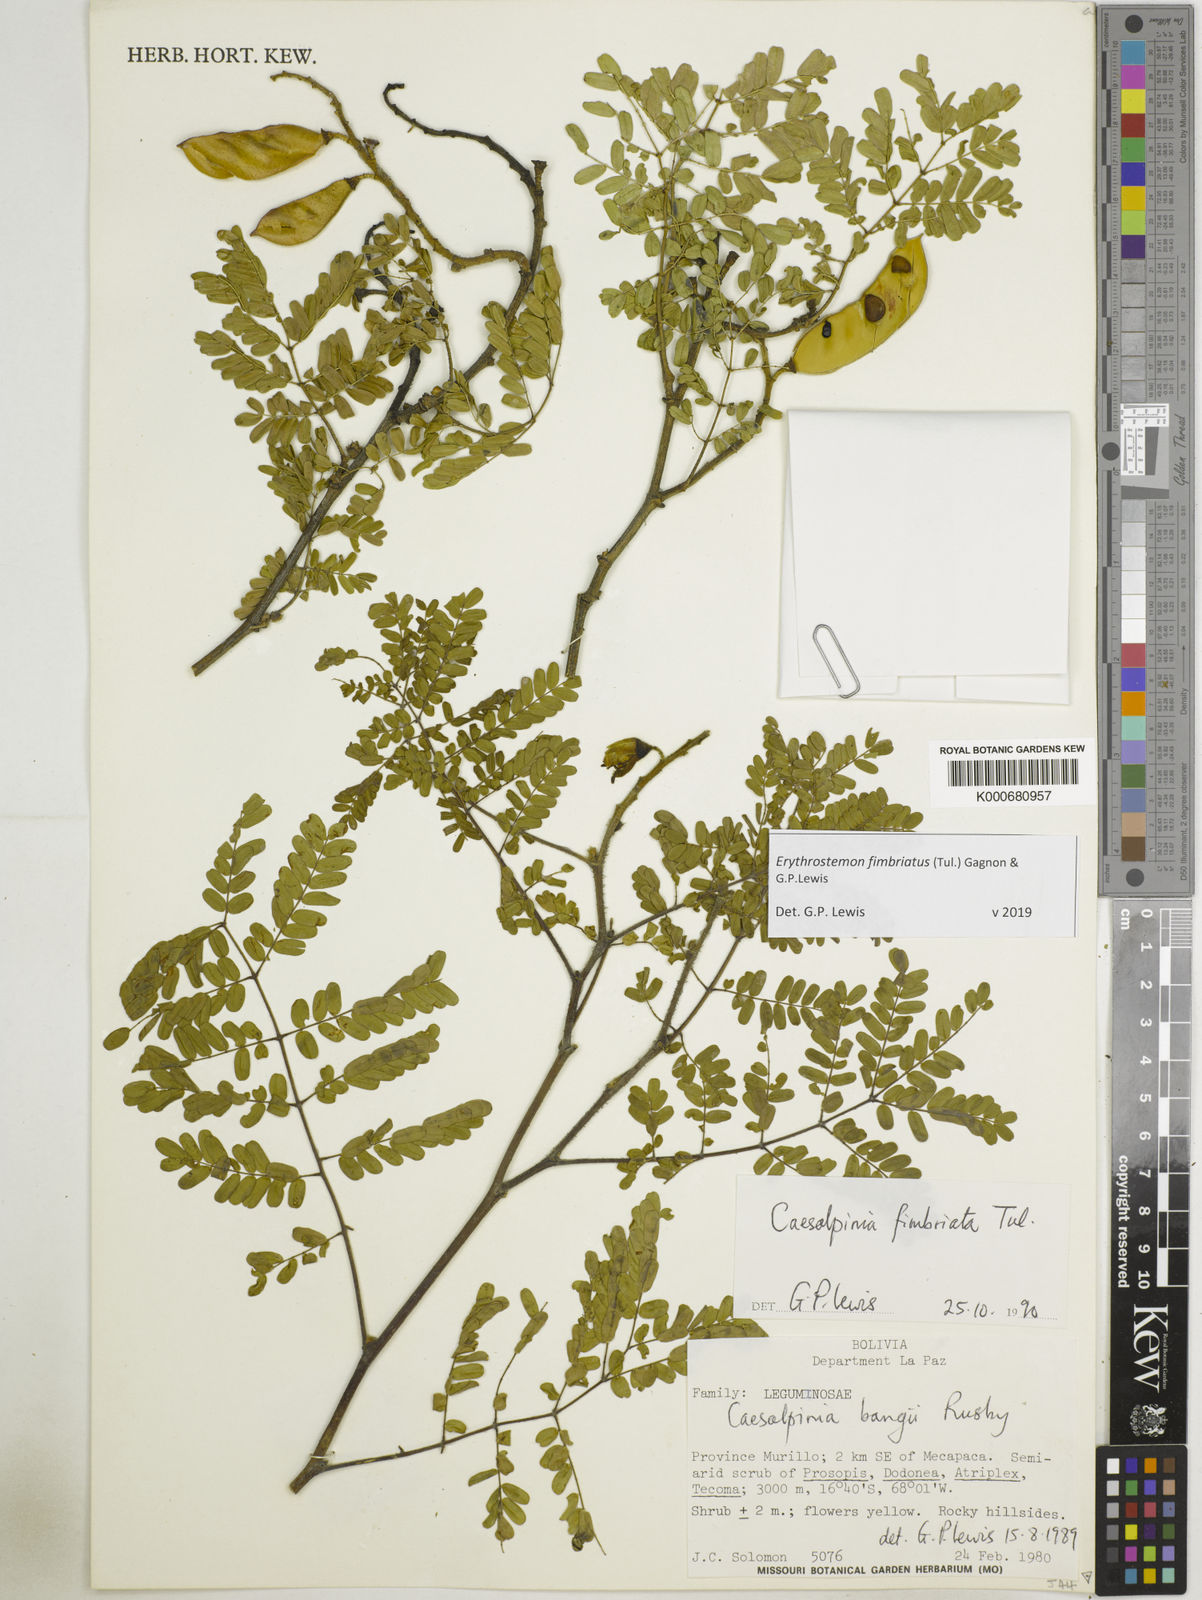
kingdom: Plantae
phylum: Tracheophyta
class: Magnoliopsida
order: Fabales
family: Fabaceae
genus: Erythrostemon
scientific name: Erythrostemon fimbriatus
